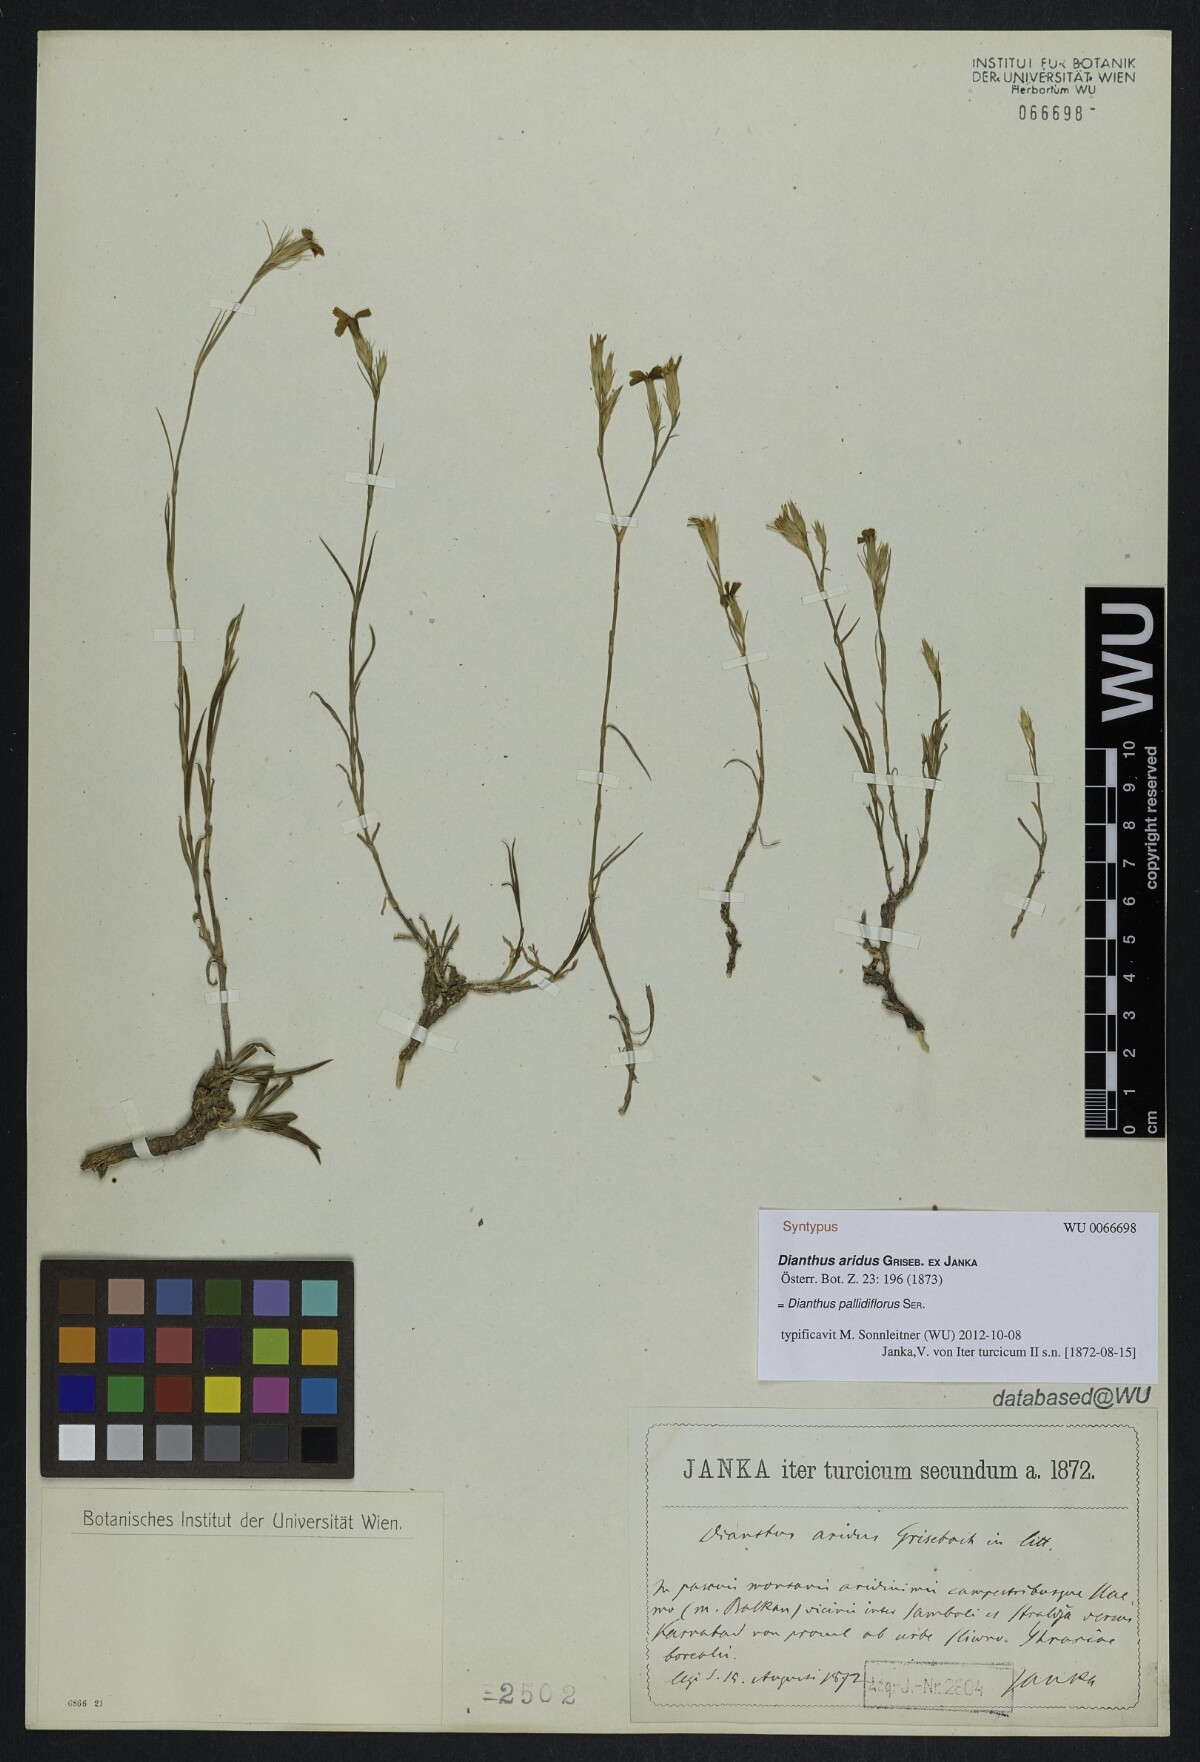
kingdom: Plantae
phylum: Tracheophyta
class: Magnoliopsida
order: Caryophyllales
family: Caryophyllaceae
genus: Dianthus
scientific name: Dianthus pallens
